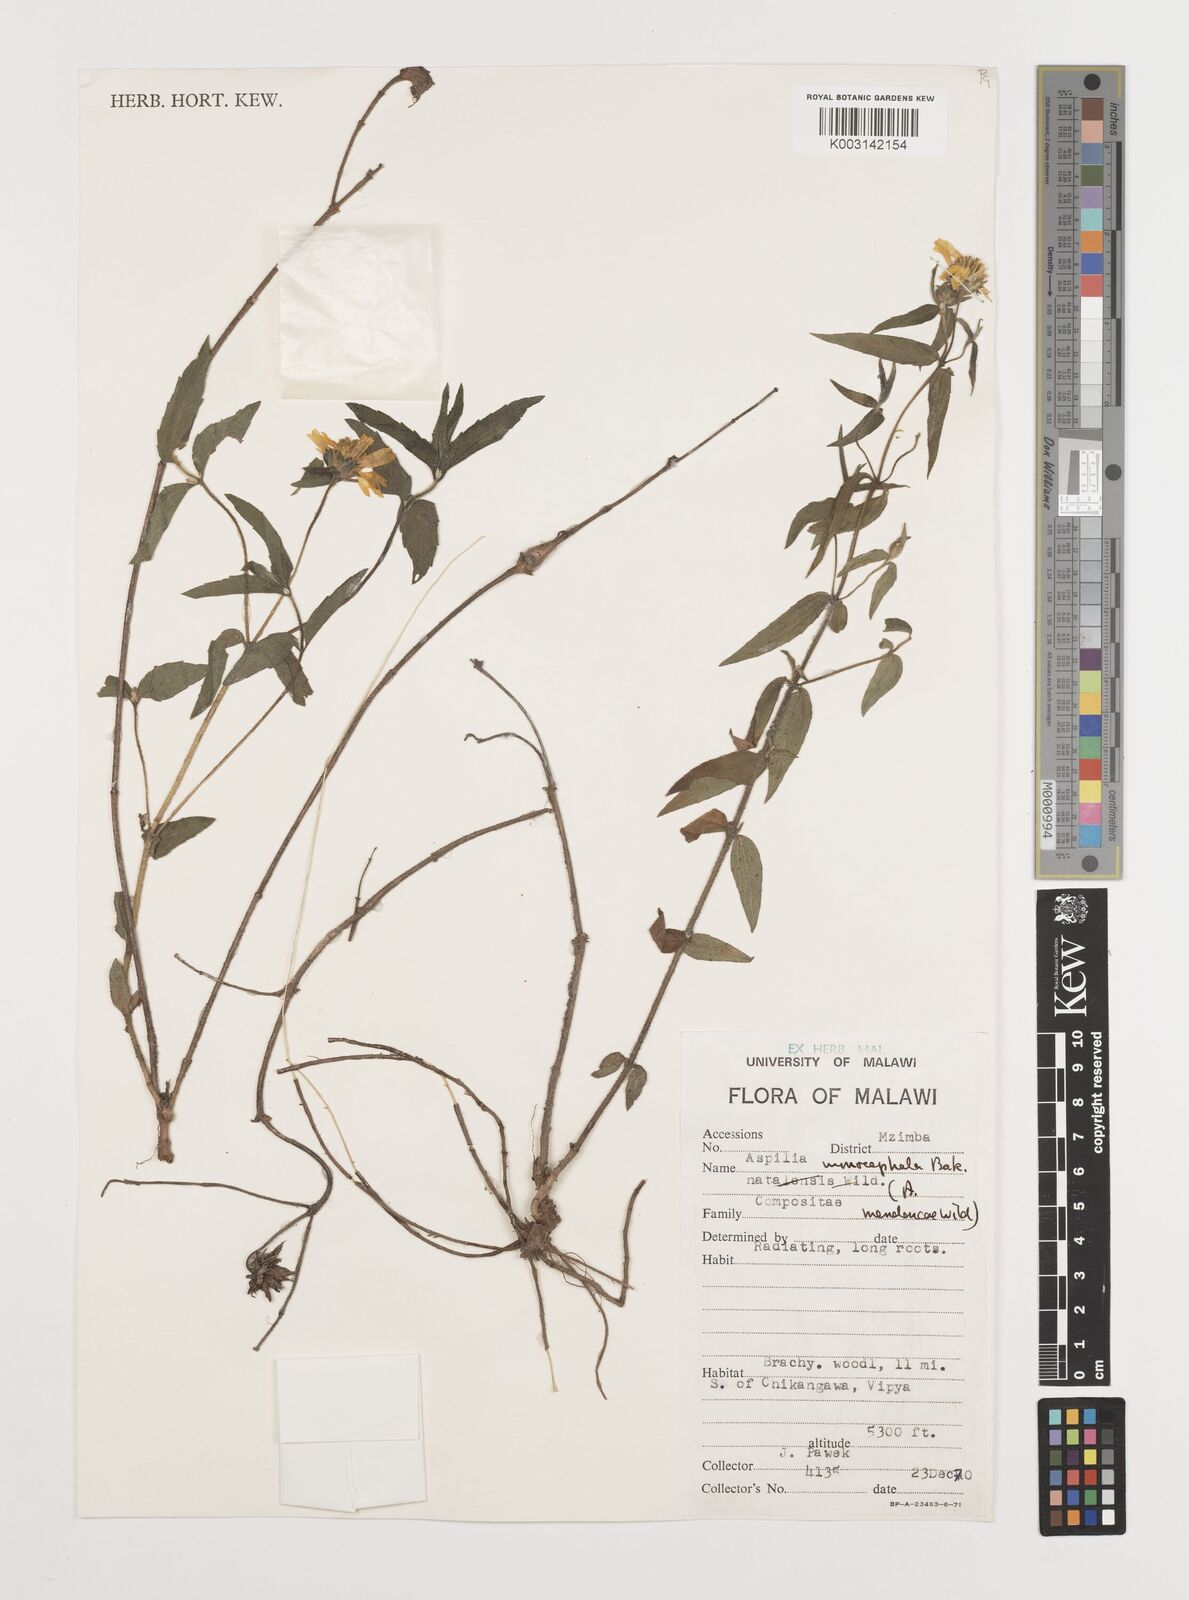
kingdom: Plantae
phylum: Tracheophyta
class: Magnoliopsida
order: Asterales
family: Asteraceae
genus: Aspilia
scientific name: Aspilia natalensis
